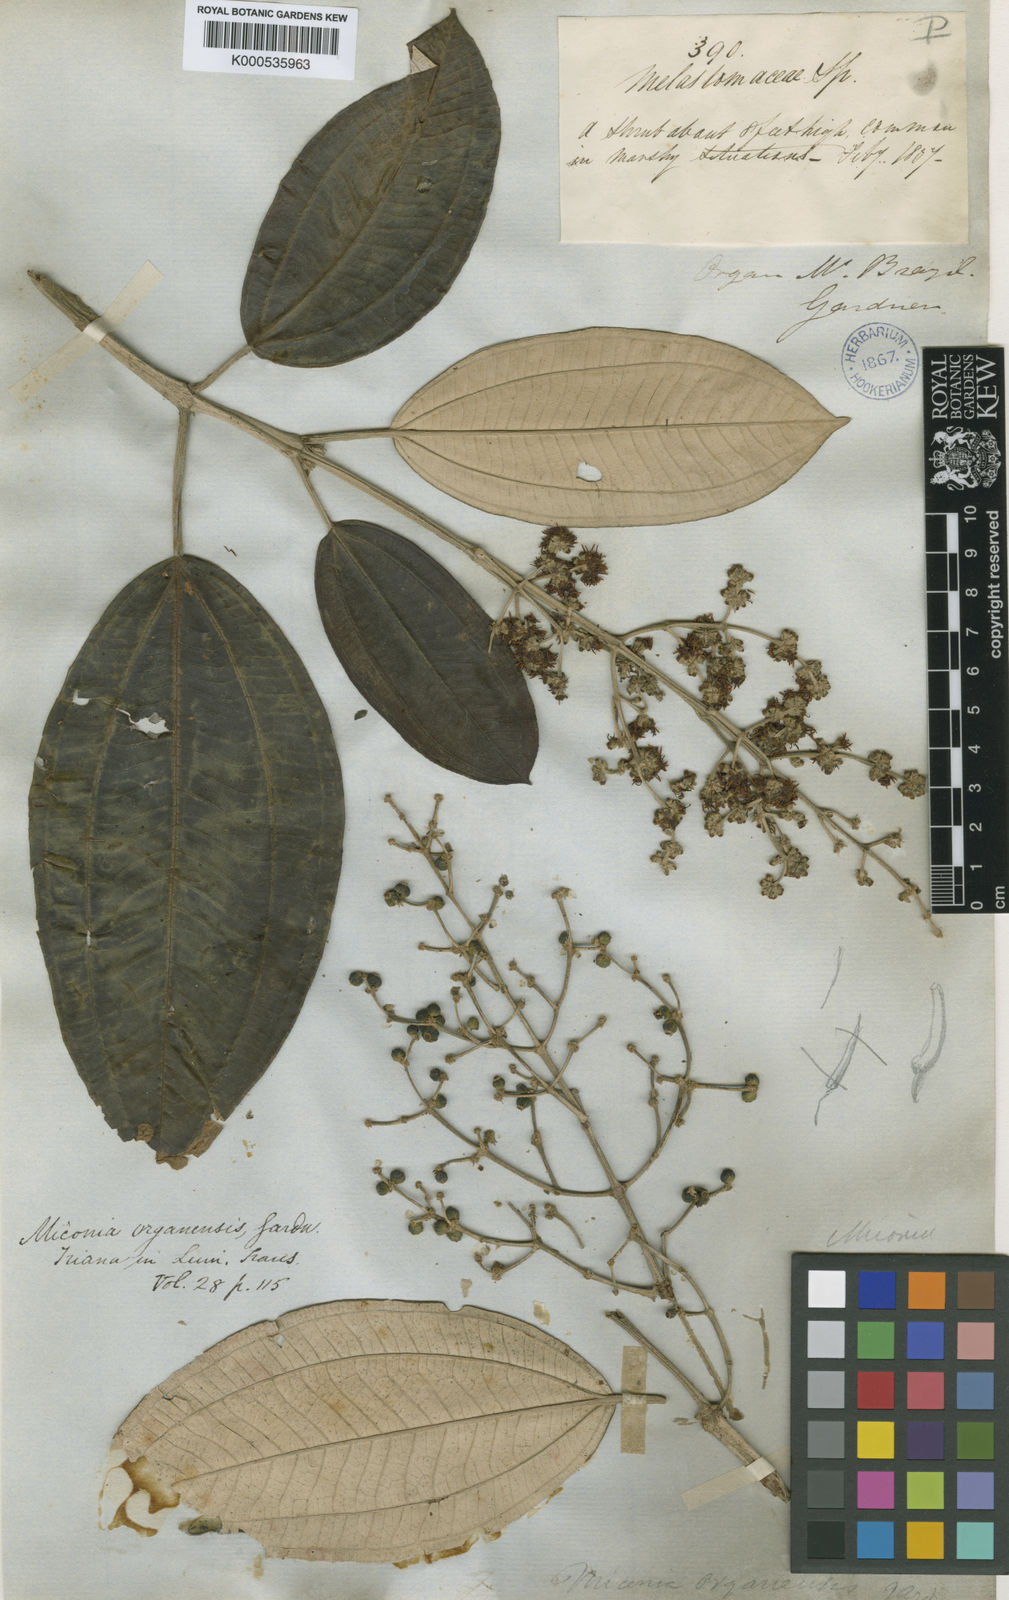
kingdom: Plantae
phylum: Tracheophyta
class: Magnoliopsida
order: Myrtales
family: Melastomataceae
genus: Miconia
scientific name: Miconia organensis
